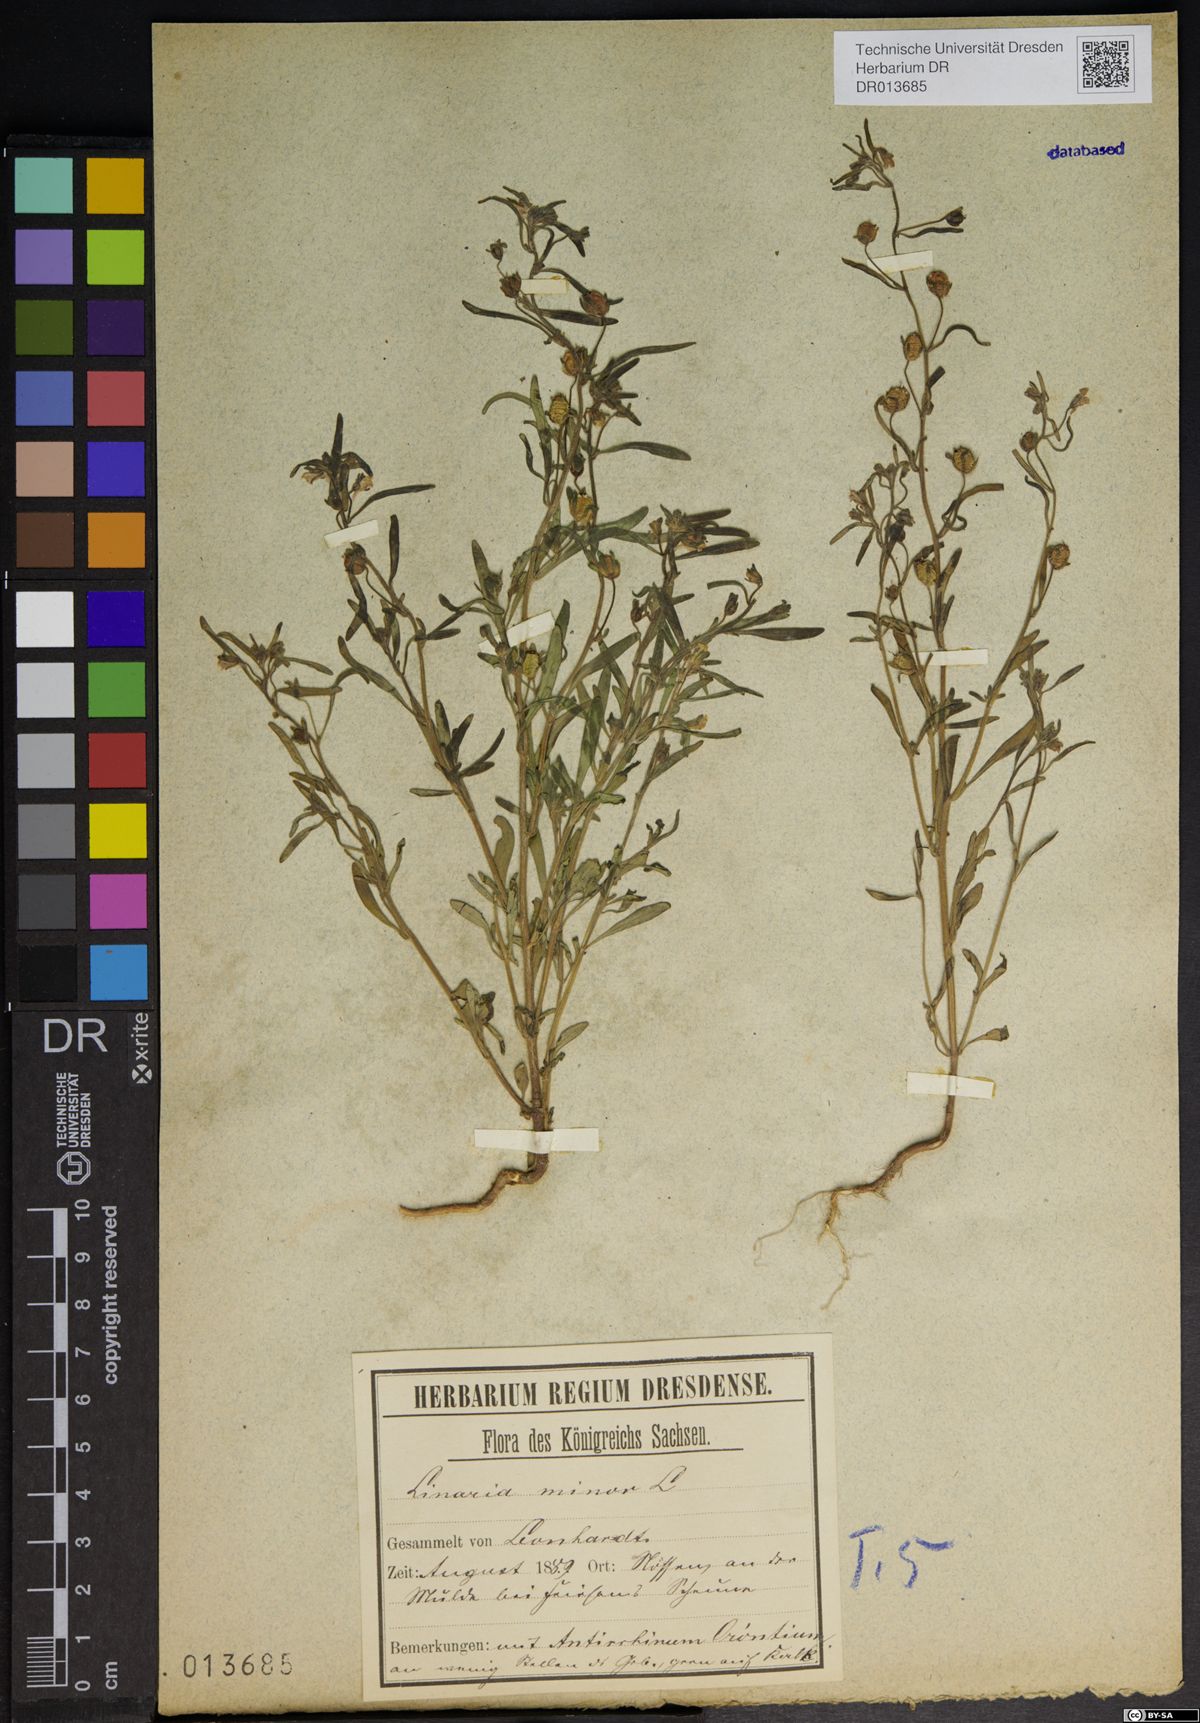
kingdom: Plantae
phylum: Tracheophyta
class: Magnoliopsida
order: Lamiales
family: Plantaginaceae
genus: Chaenorhinum
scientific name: Chaenorhinum minus
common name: Dwarf snapdragon
